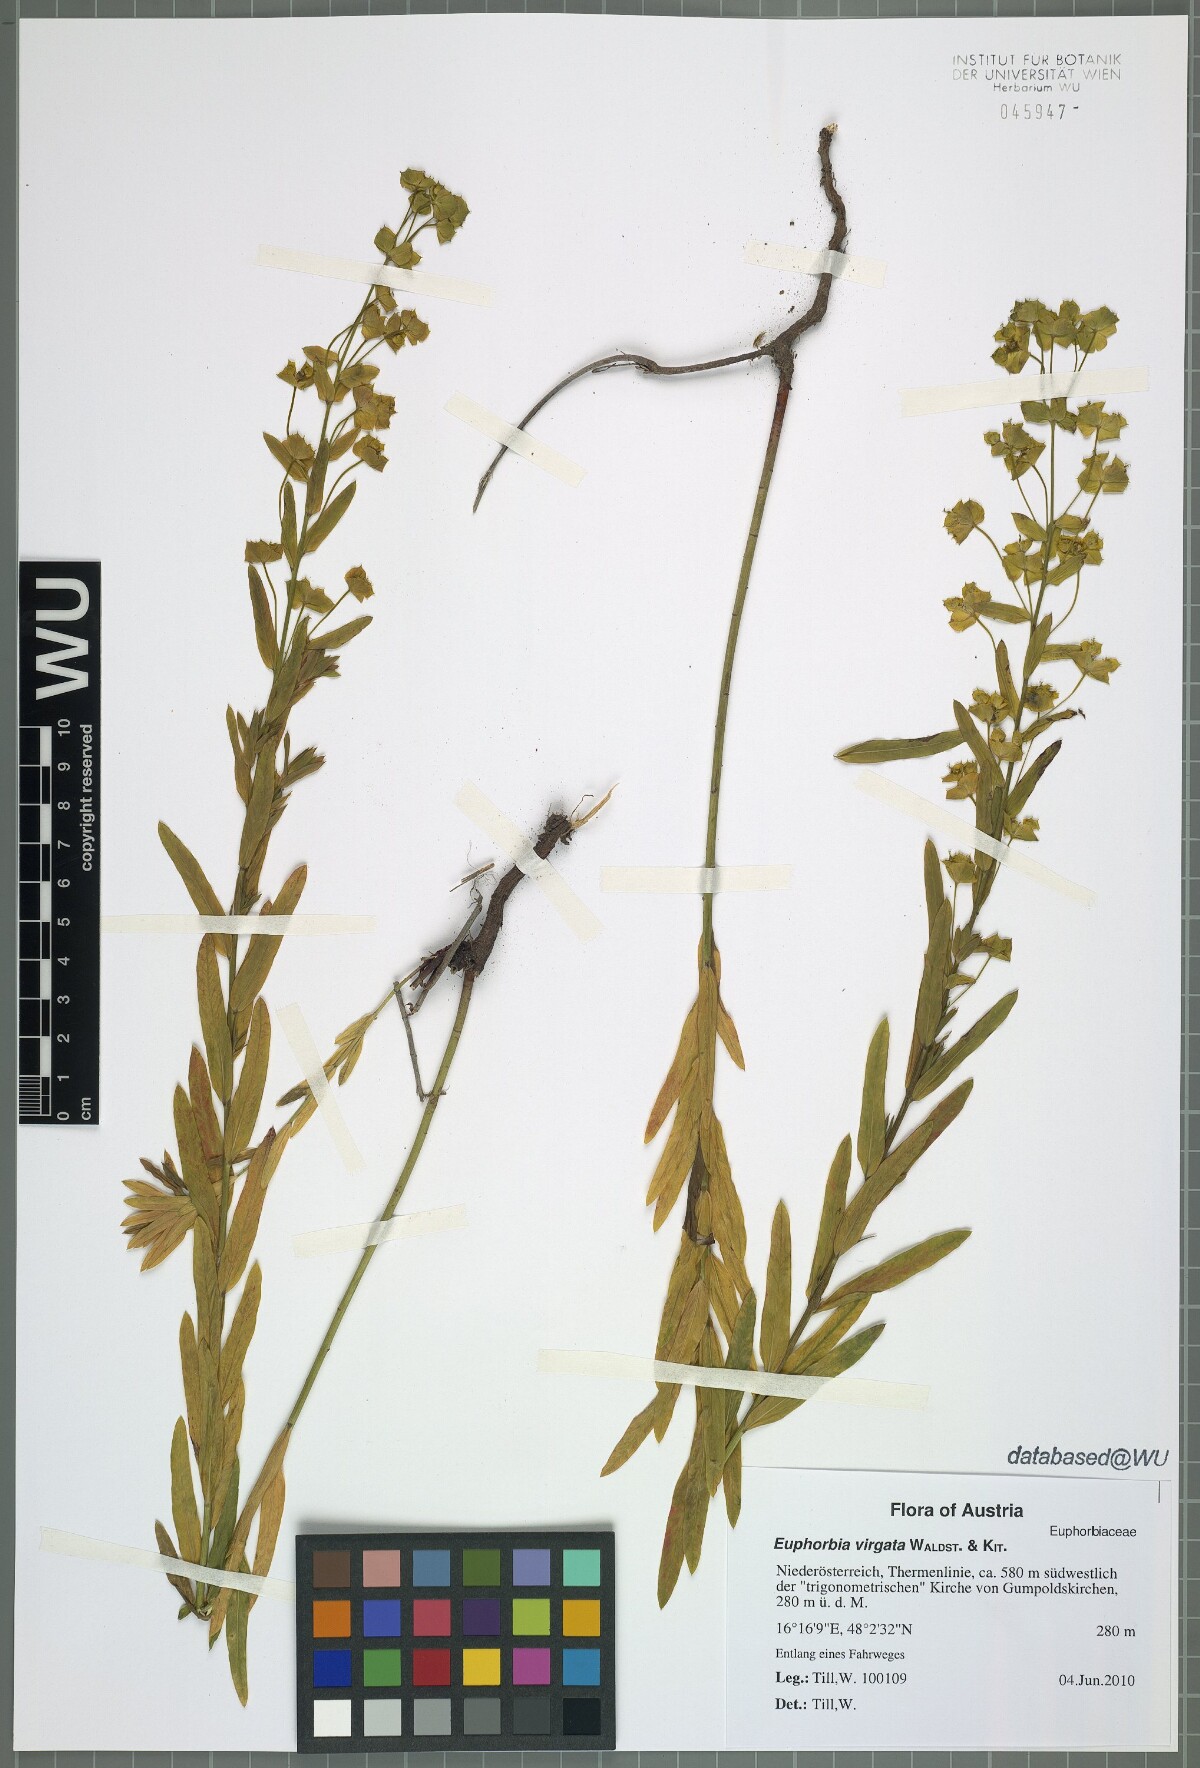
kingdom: Plantae
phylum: Tracheophyta
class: Magnoliopsida
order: Malpighiales
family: Euphorbiaceae
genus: Euphorbia
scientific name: Euphorbia virgata
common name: Leafy spurge
